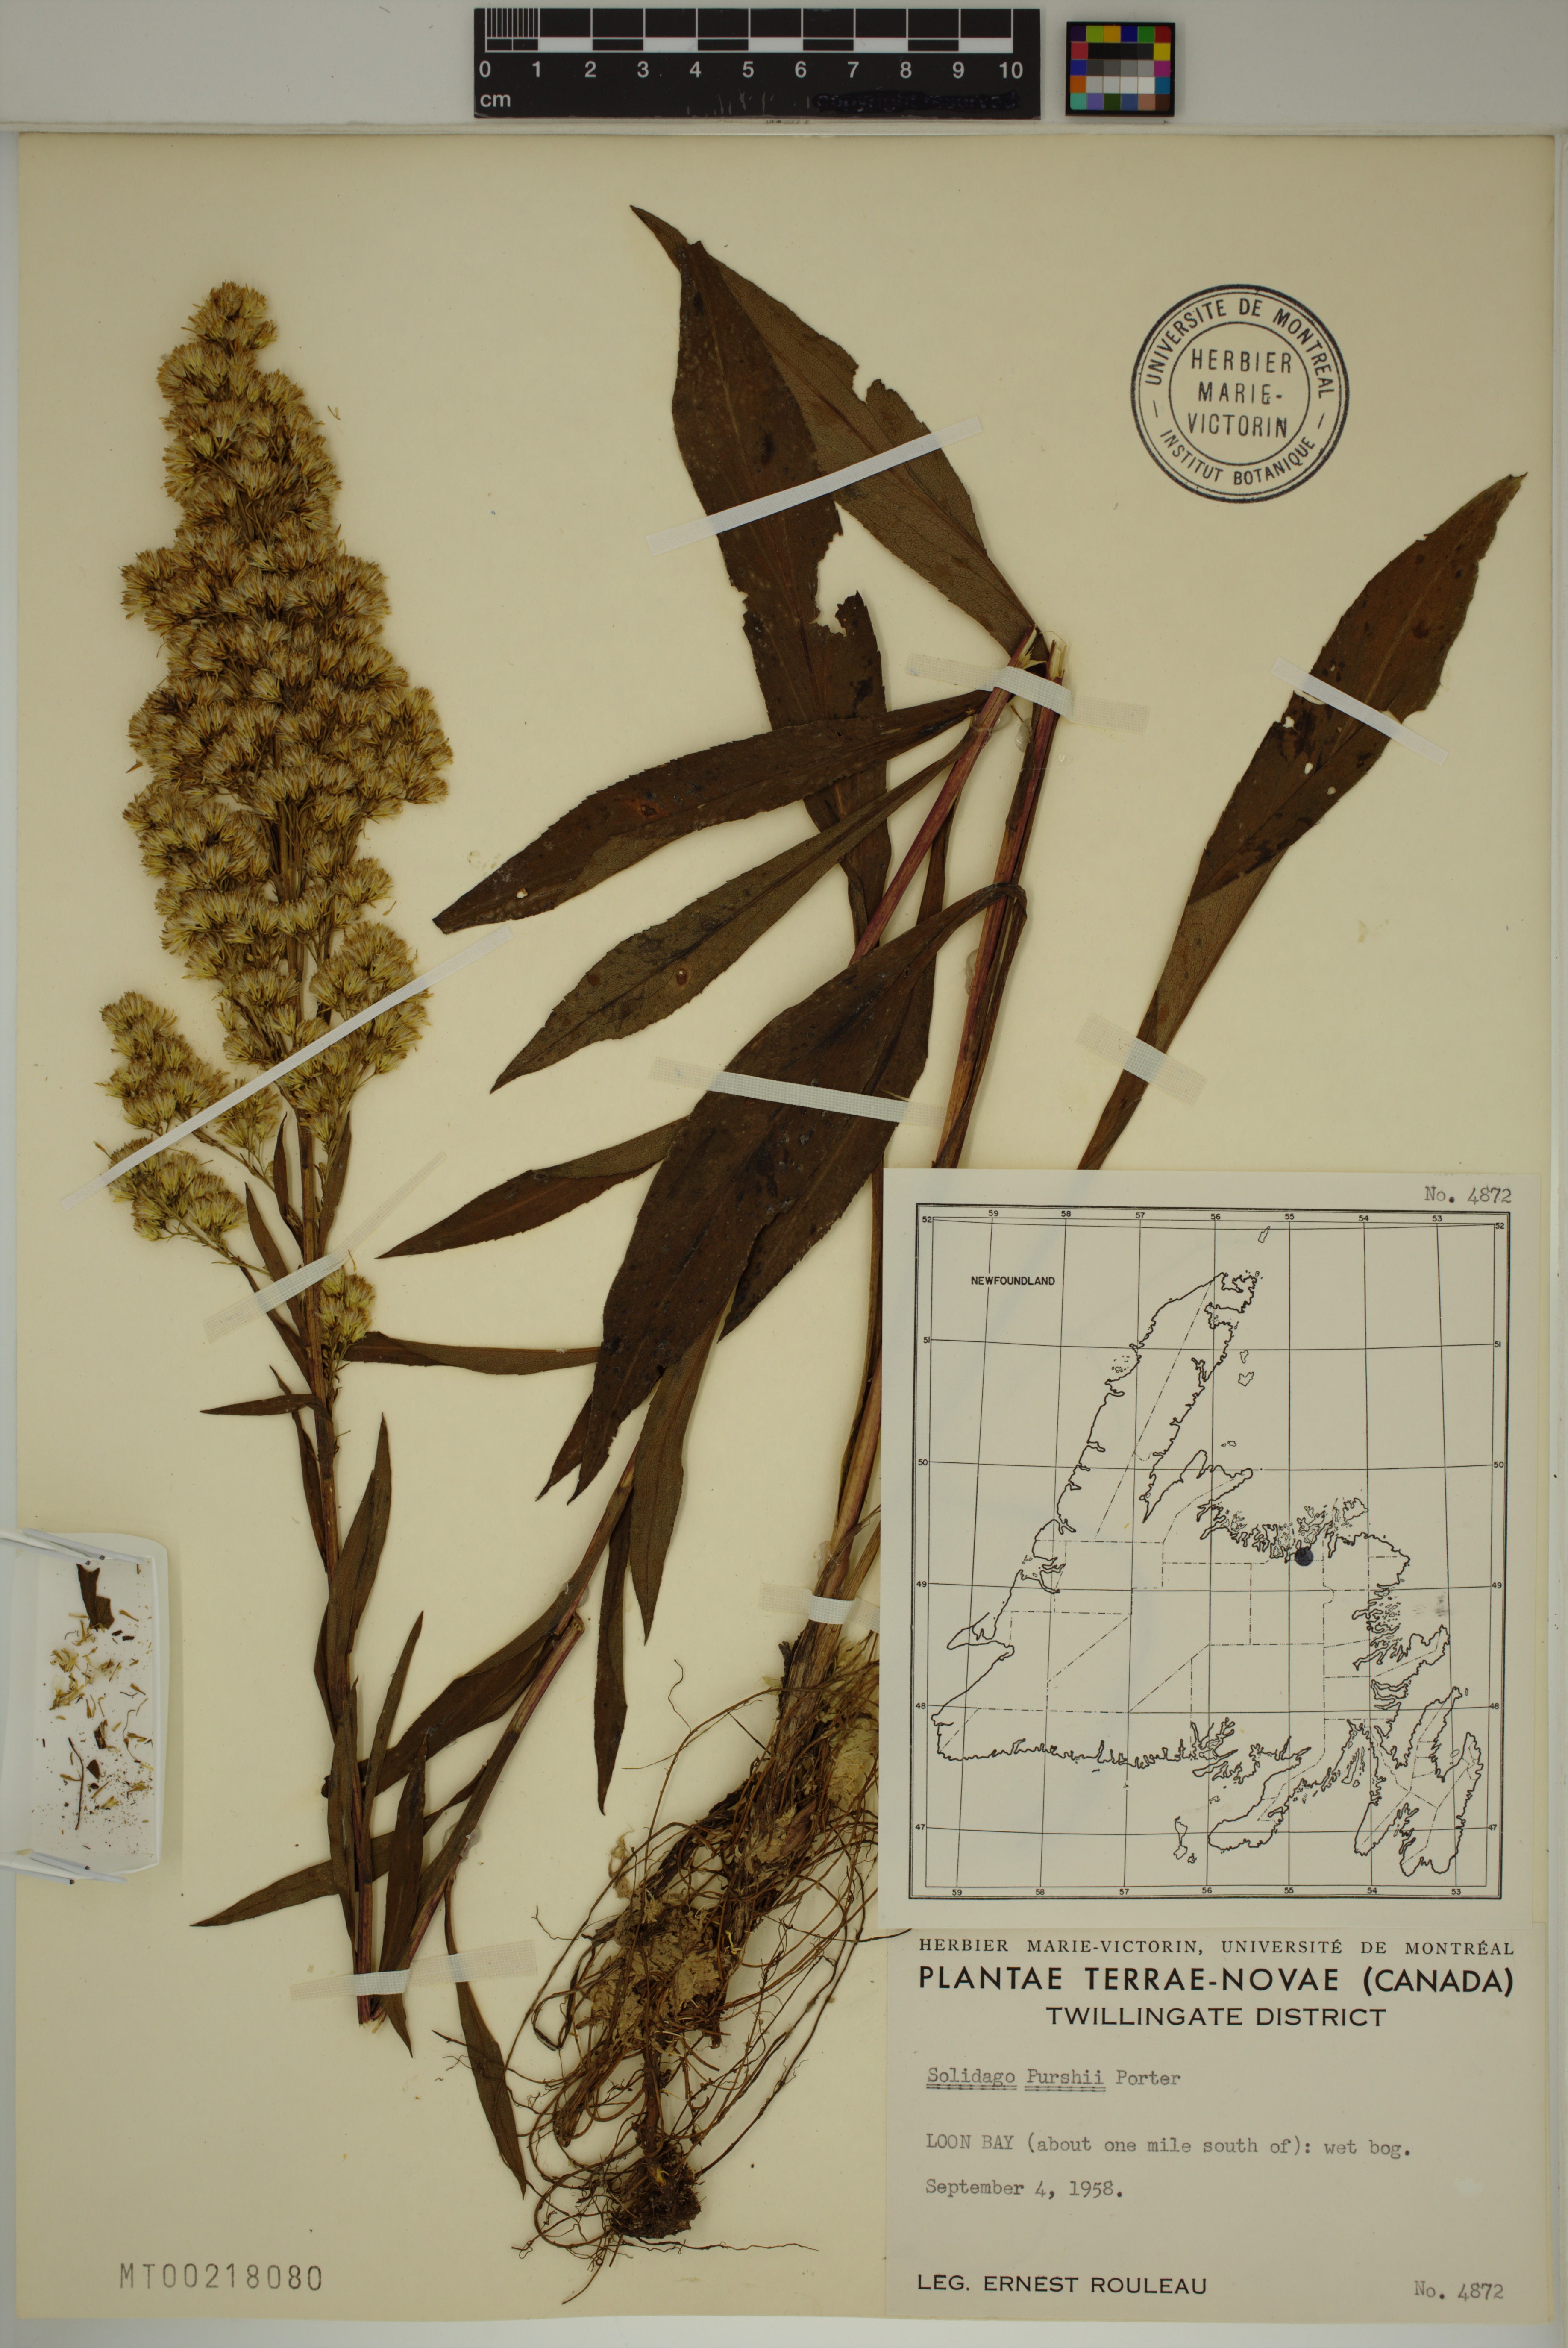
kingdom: Plantae
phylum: Tracheophyta
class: Magnoliopsida
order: Asterales
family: Asteraceae
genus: Solidago
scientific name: Solidago uliginosa
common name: Bog goldenrod
